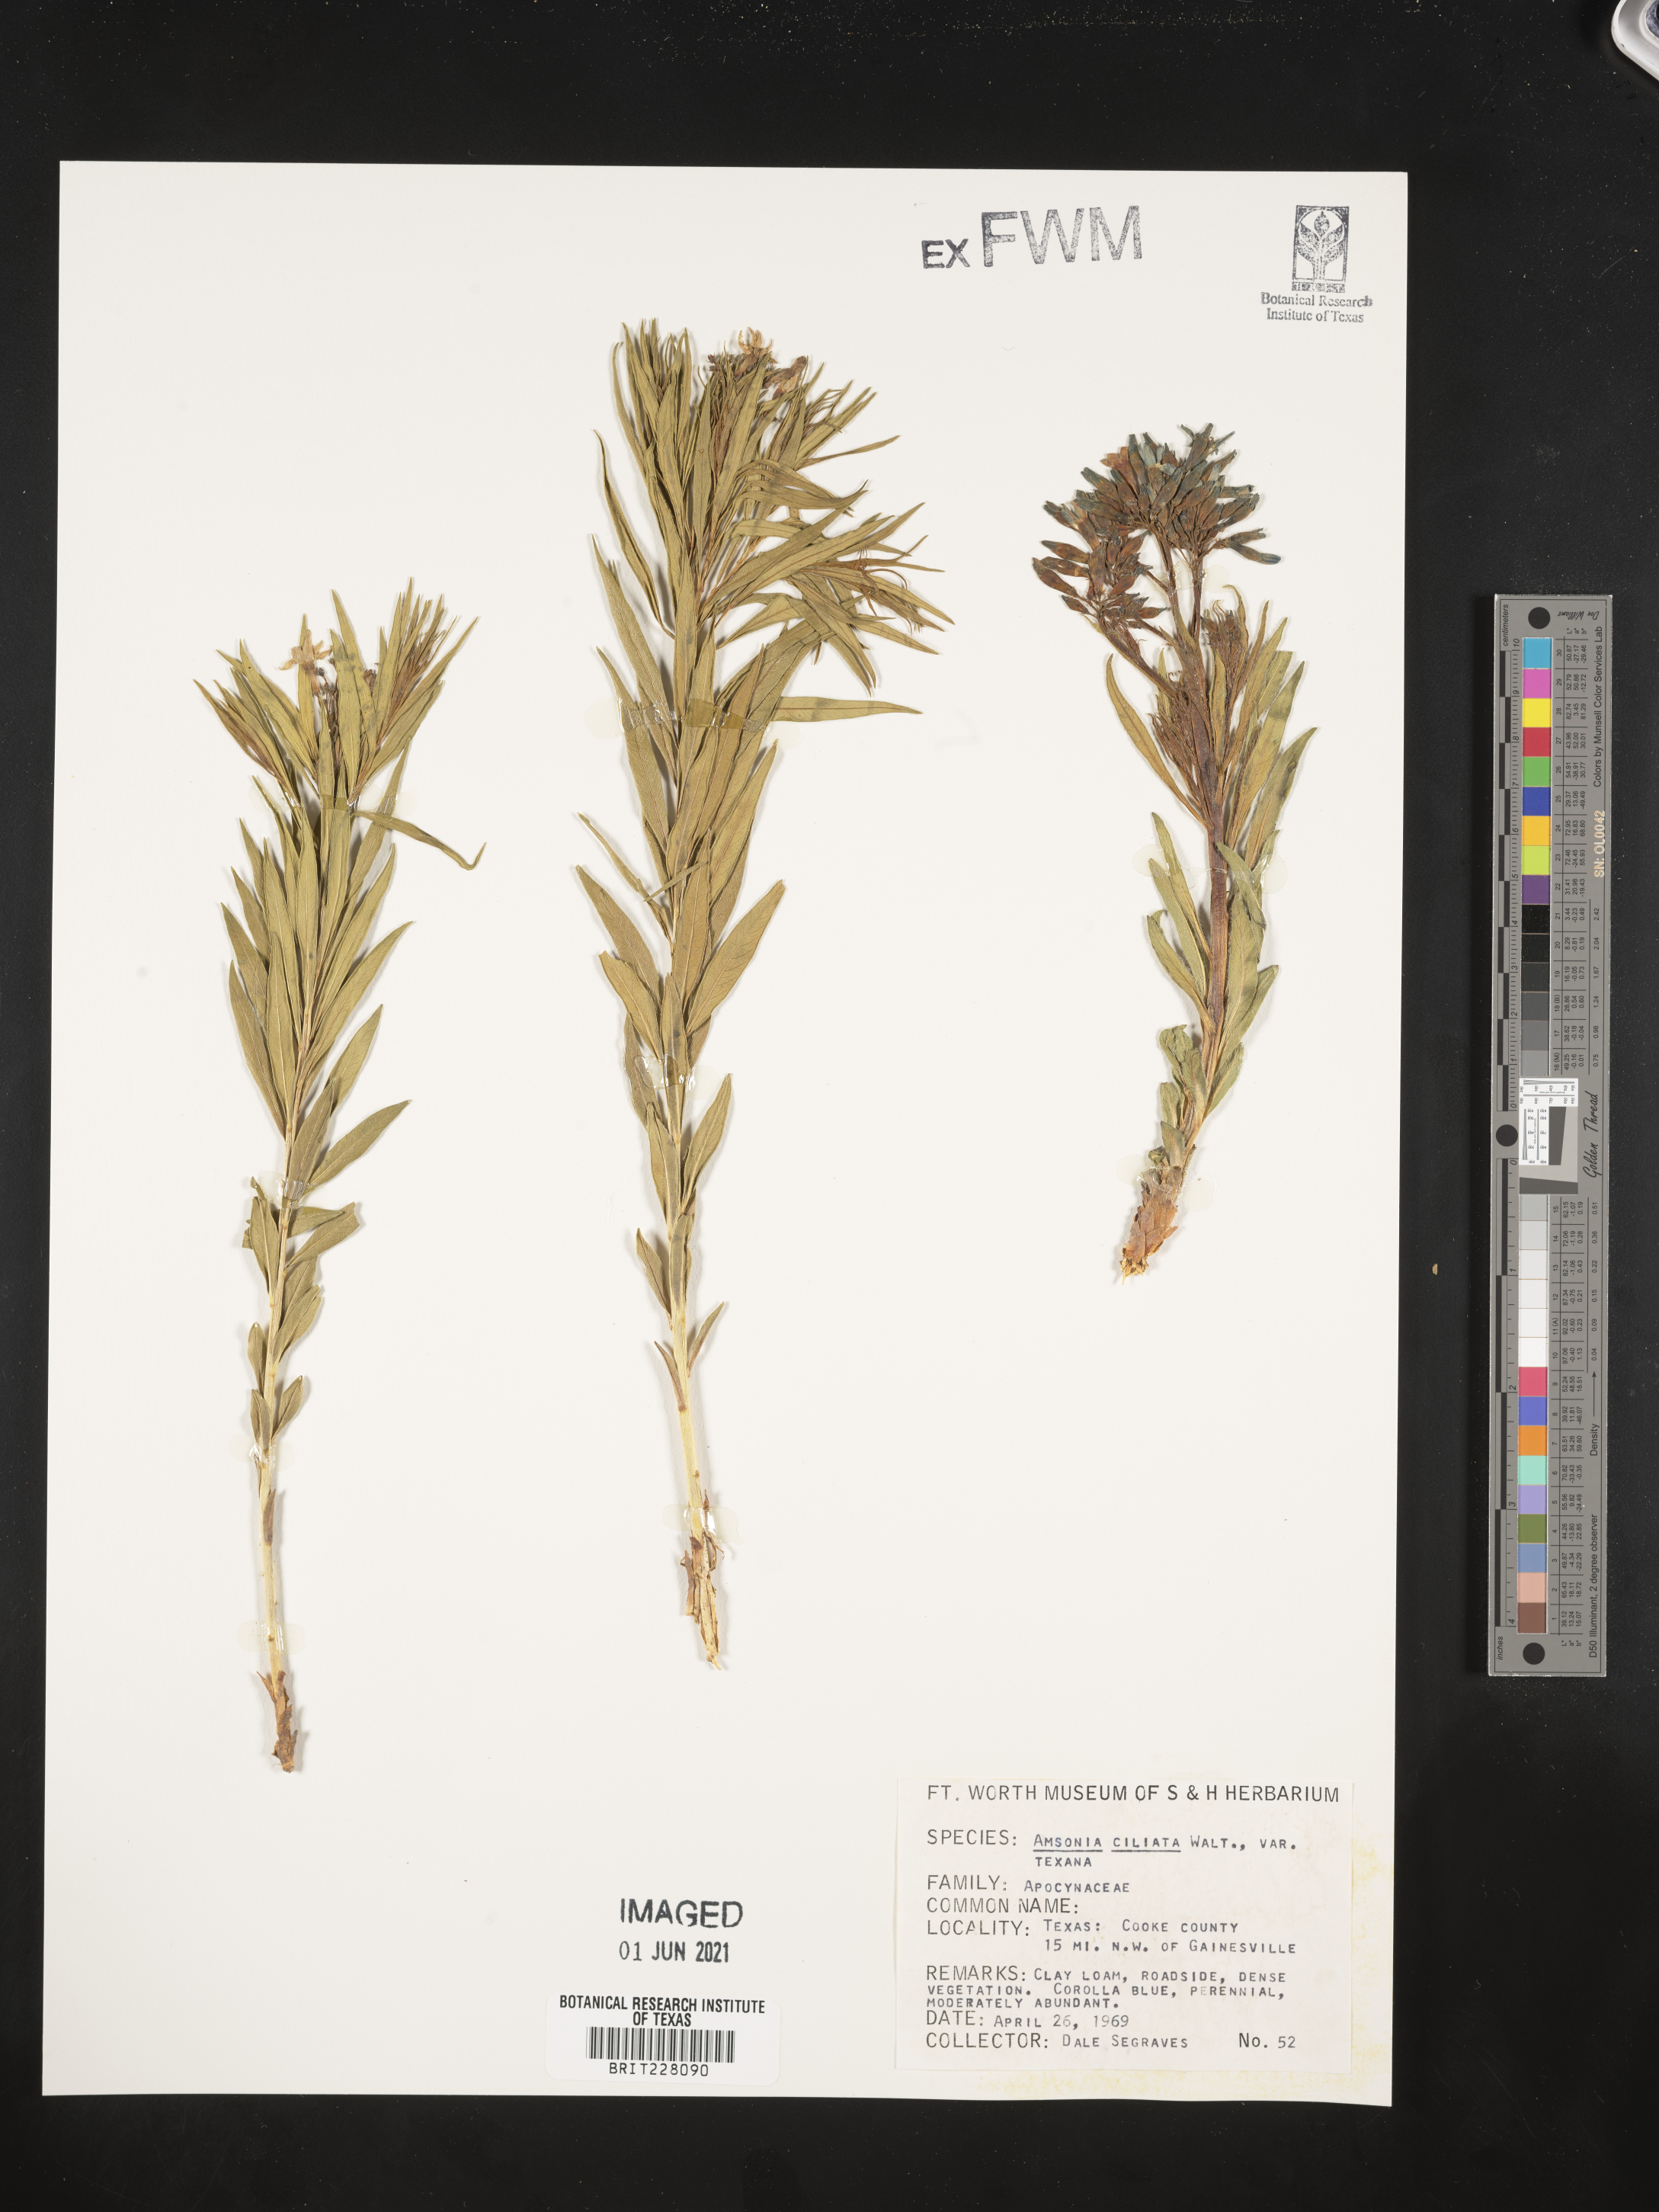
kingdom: Plantae
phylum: Tracheophyta
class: Magnoliopsida
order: Gentianales
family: Apocynaceae
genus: Amsonia
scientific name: Amsonia ciliata
